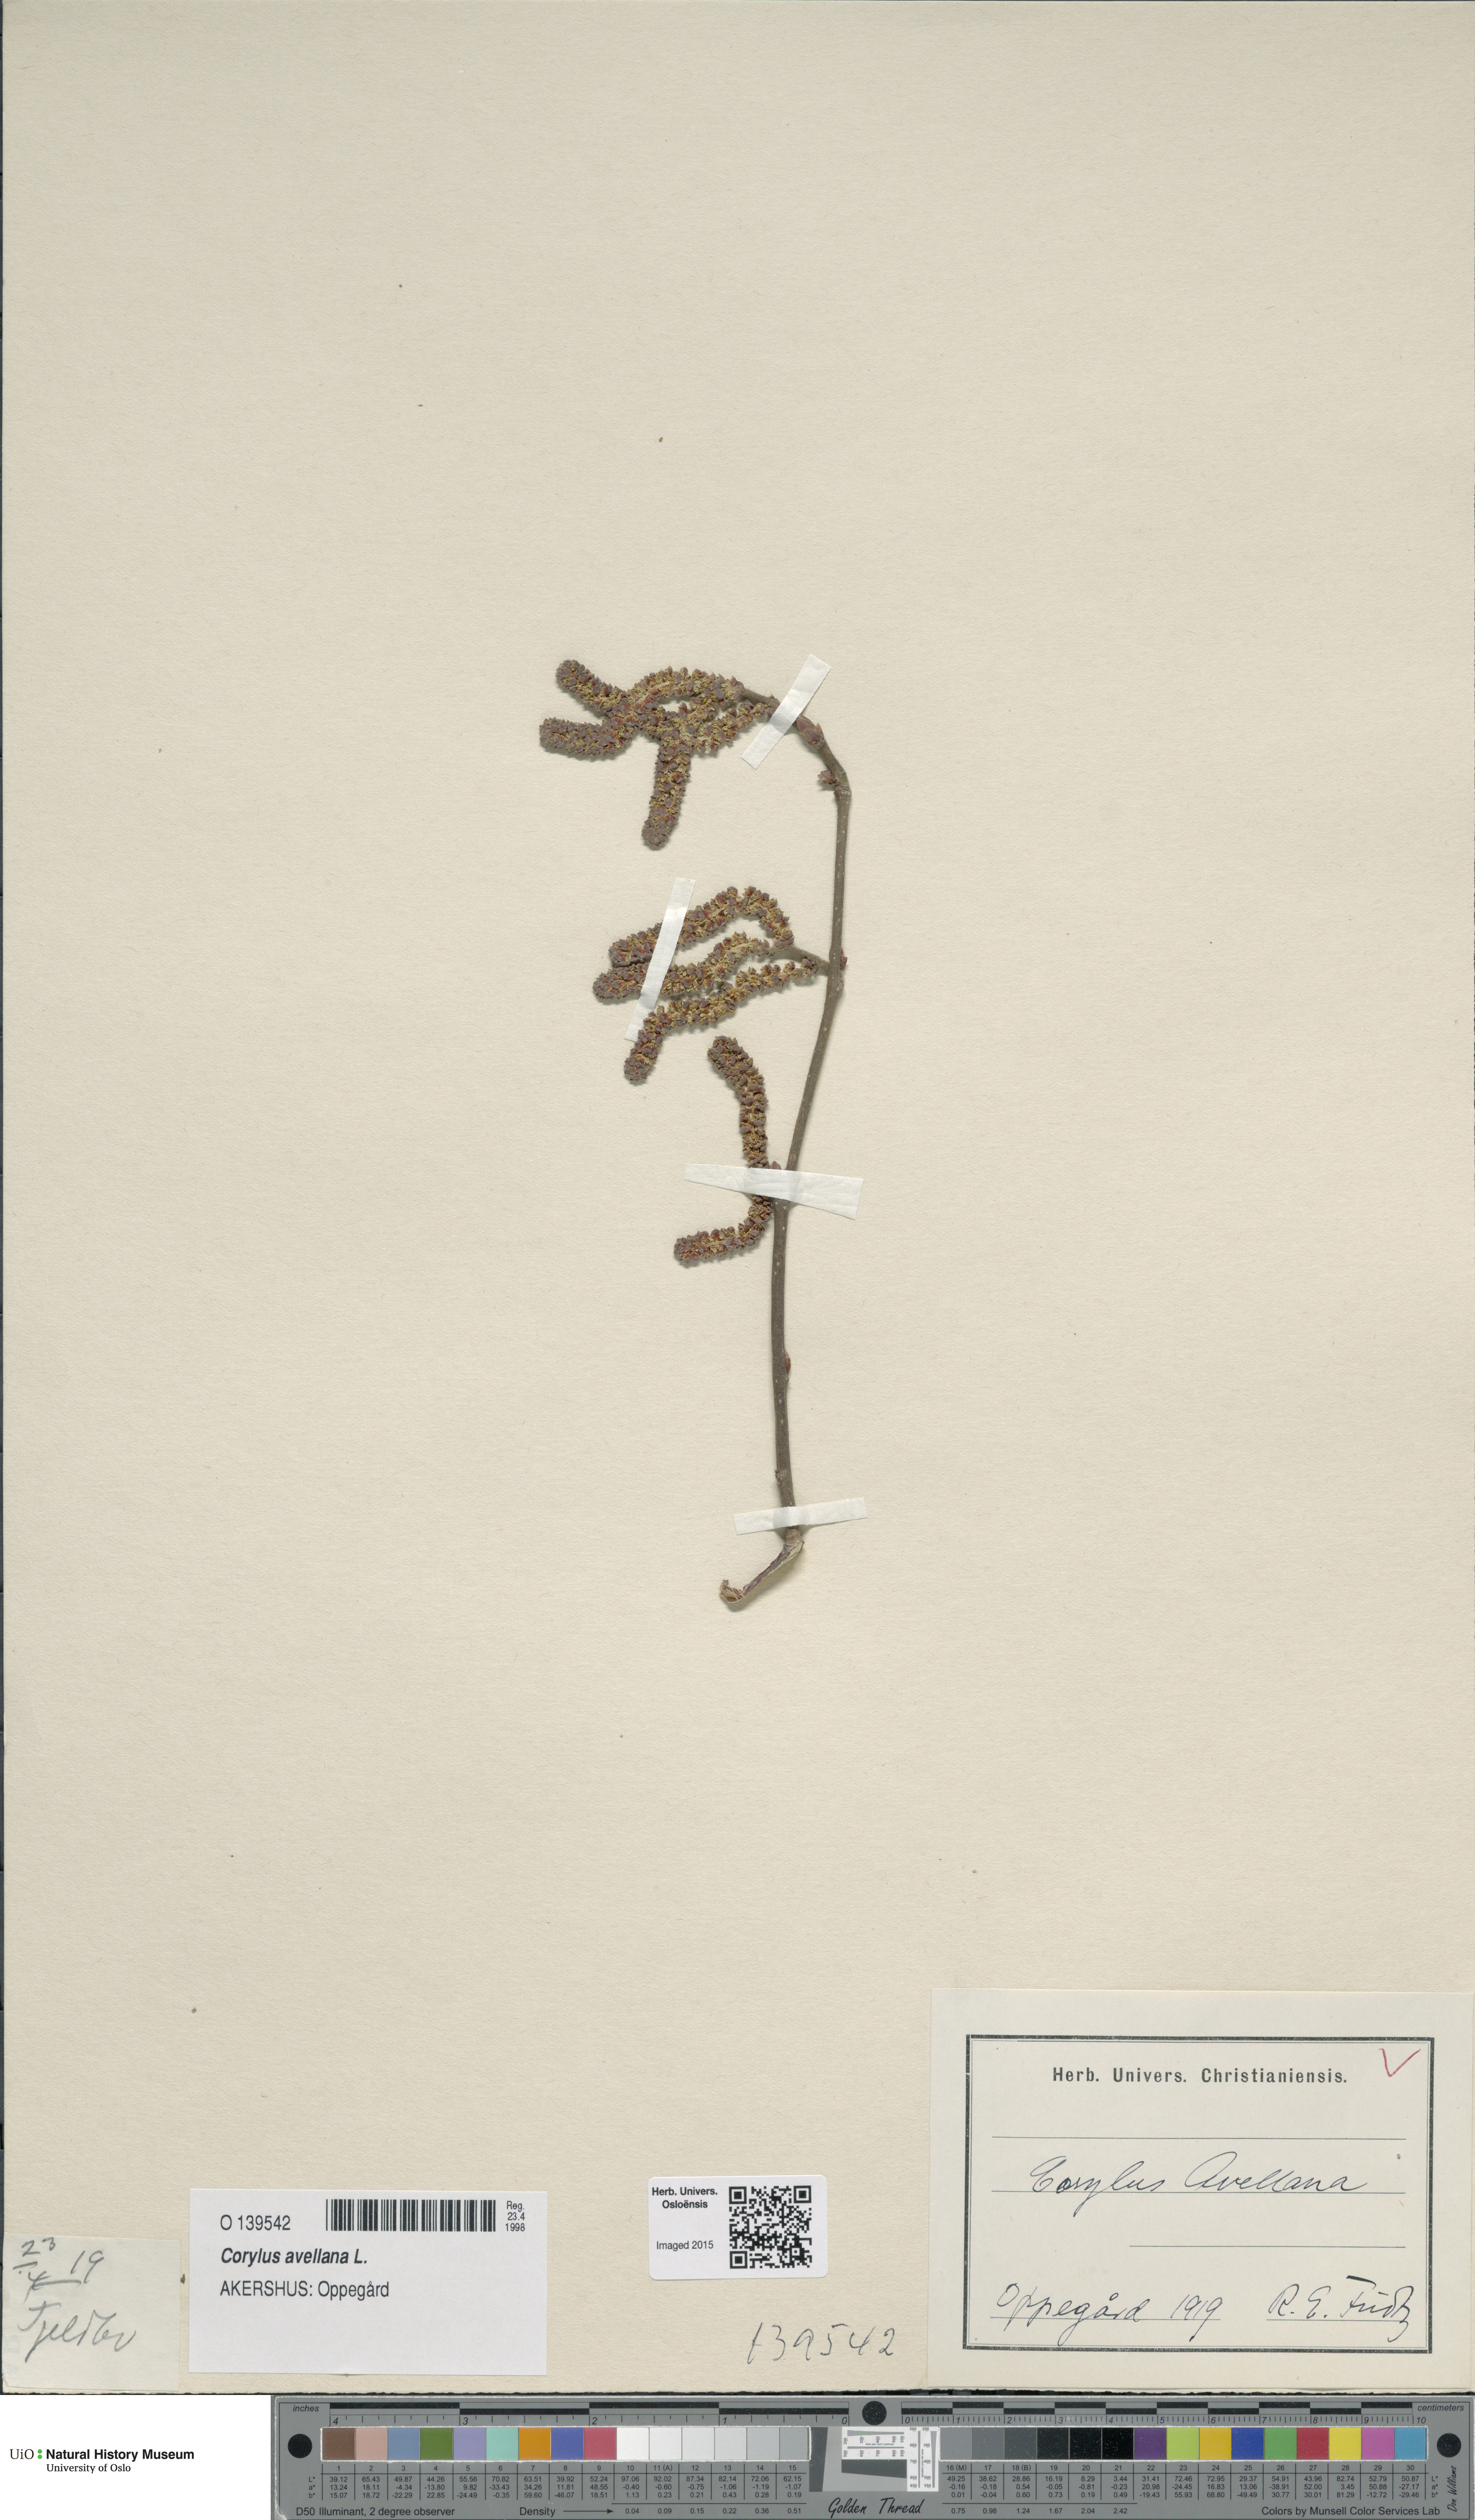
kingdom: Plantae
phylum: Tracheophyta
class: Magnoliopsida
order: Fagales
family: Betulaceae
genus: Corylus
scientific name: Corylus avellana
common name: European hazel
